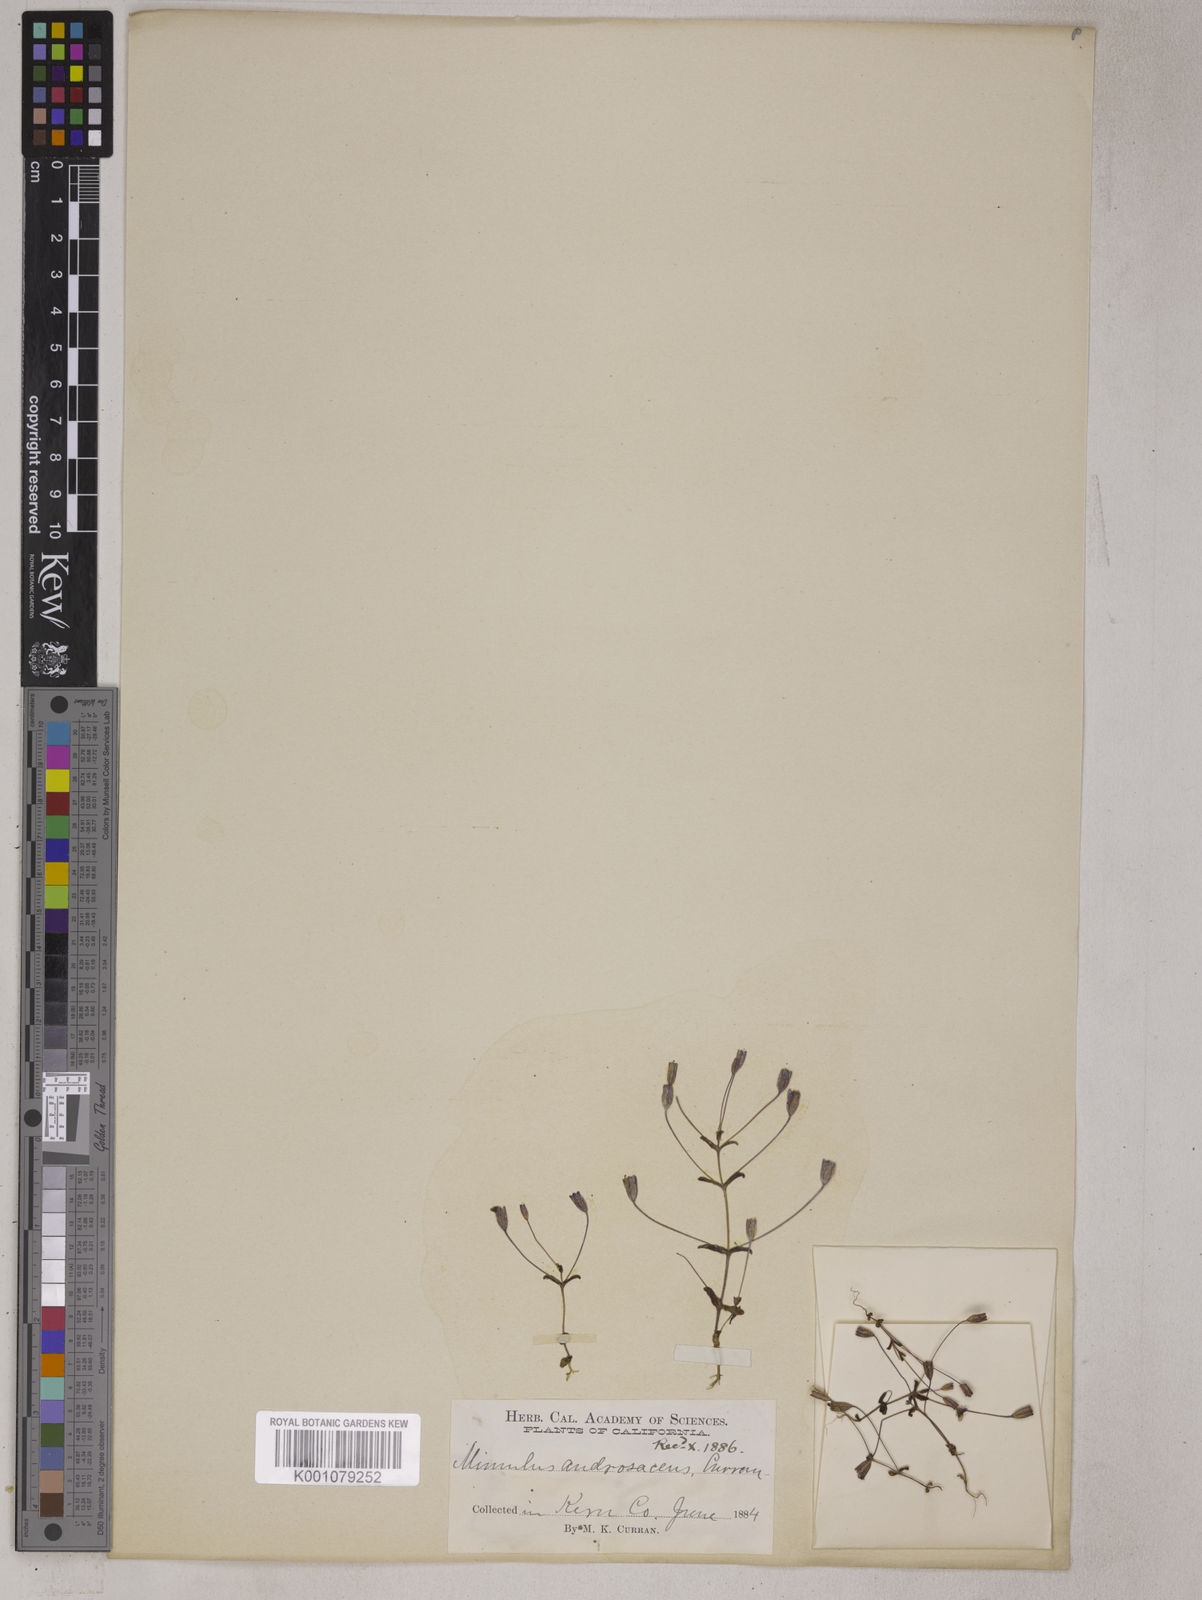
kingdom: Plantae
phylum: Tracheophyta
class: Magnoliopsida
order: Lamiales
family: Phrymaceae
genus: Erythranthe
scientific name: Erythranthe androsacea
